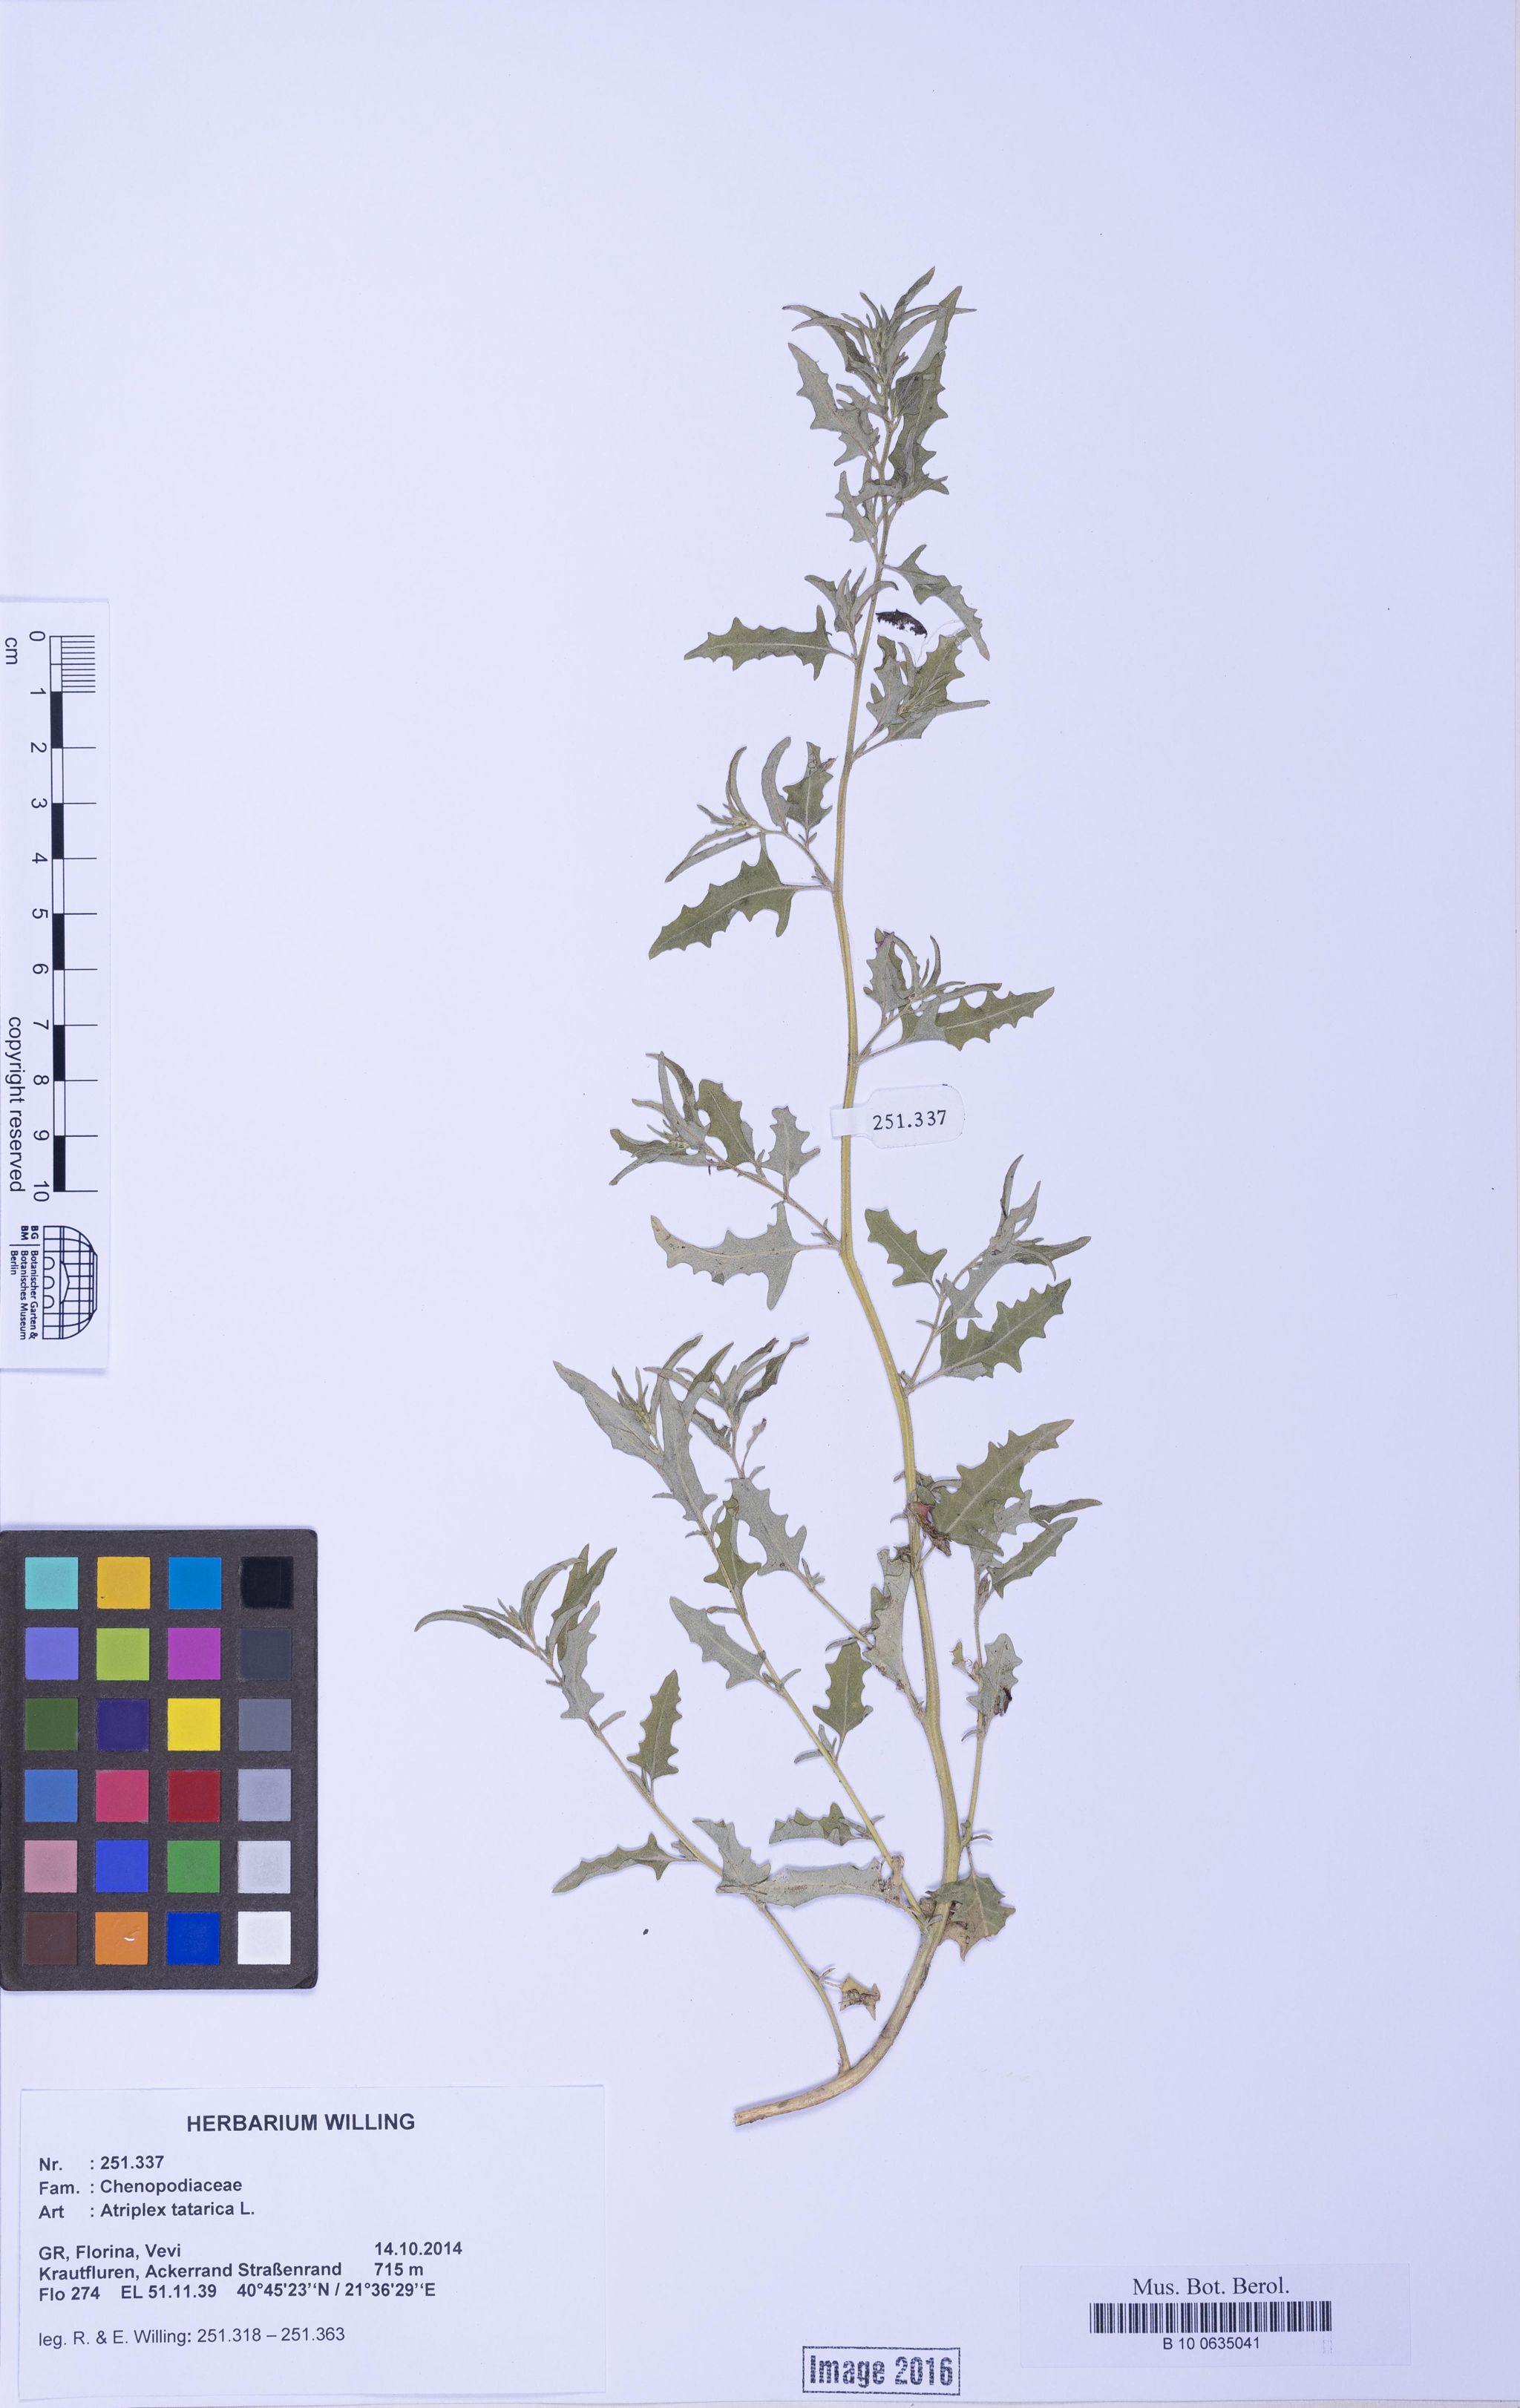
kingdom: Plantae
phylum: Tracheophyta
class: Magnoliopsida
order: Caryophyllales
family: Amaranthaceae
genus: Atriplex
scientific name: Atriplex tatarica
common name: Tatarian orache
